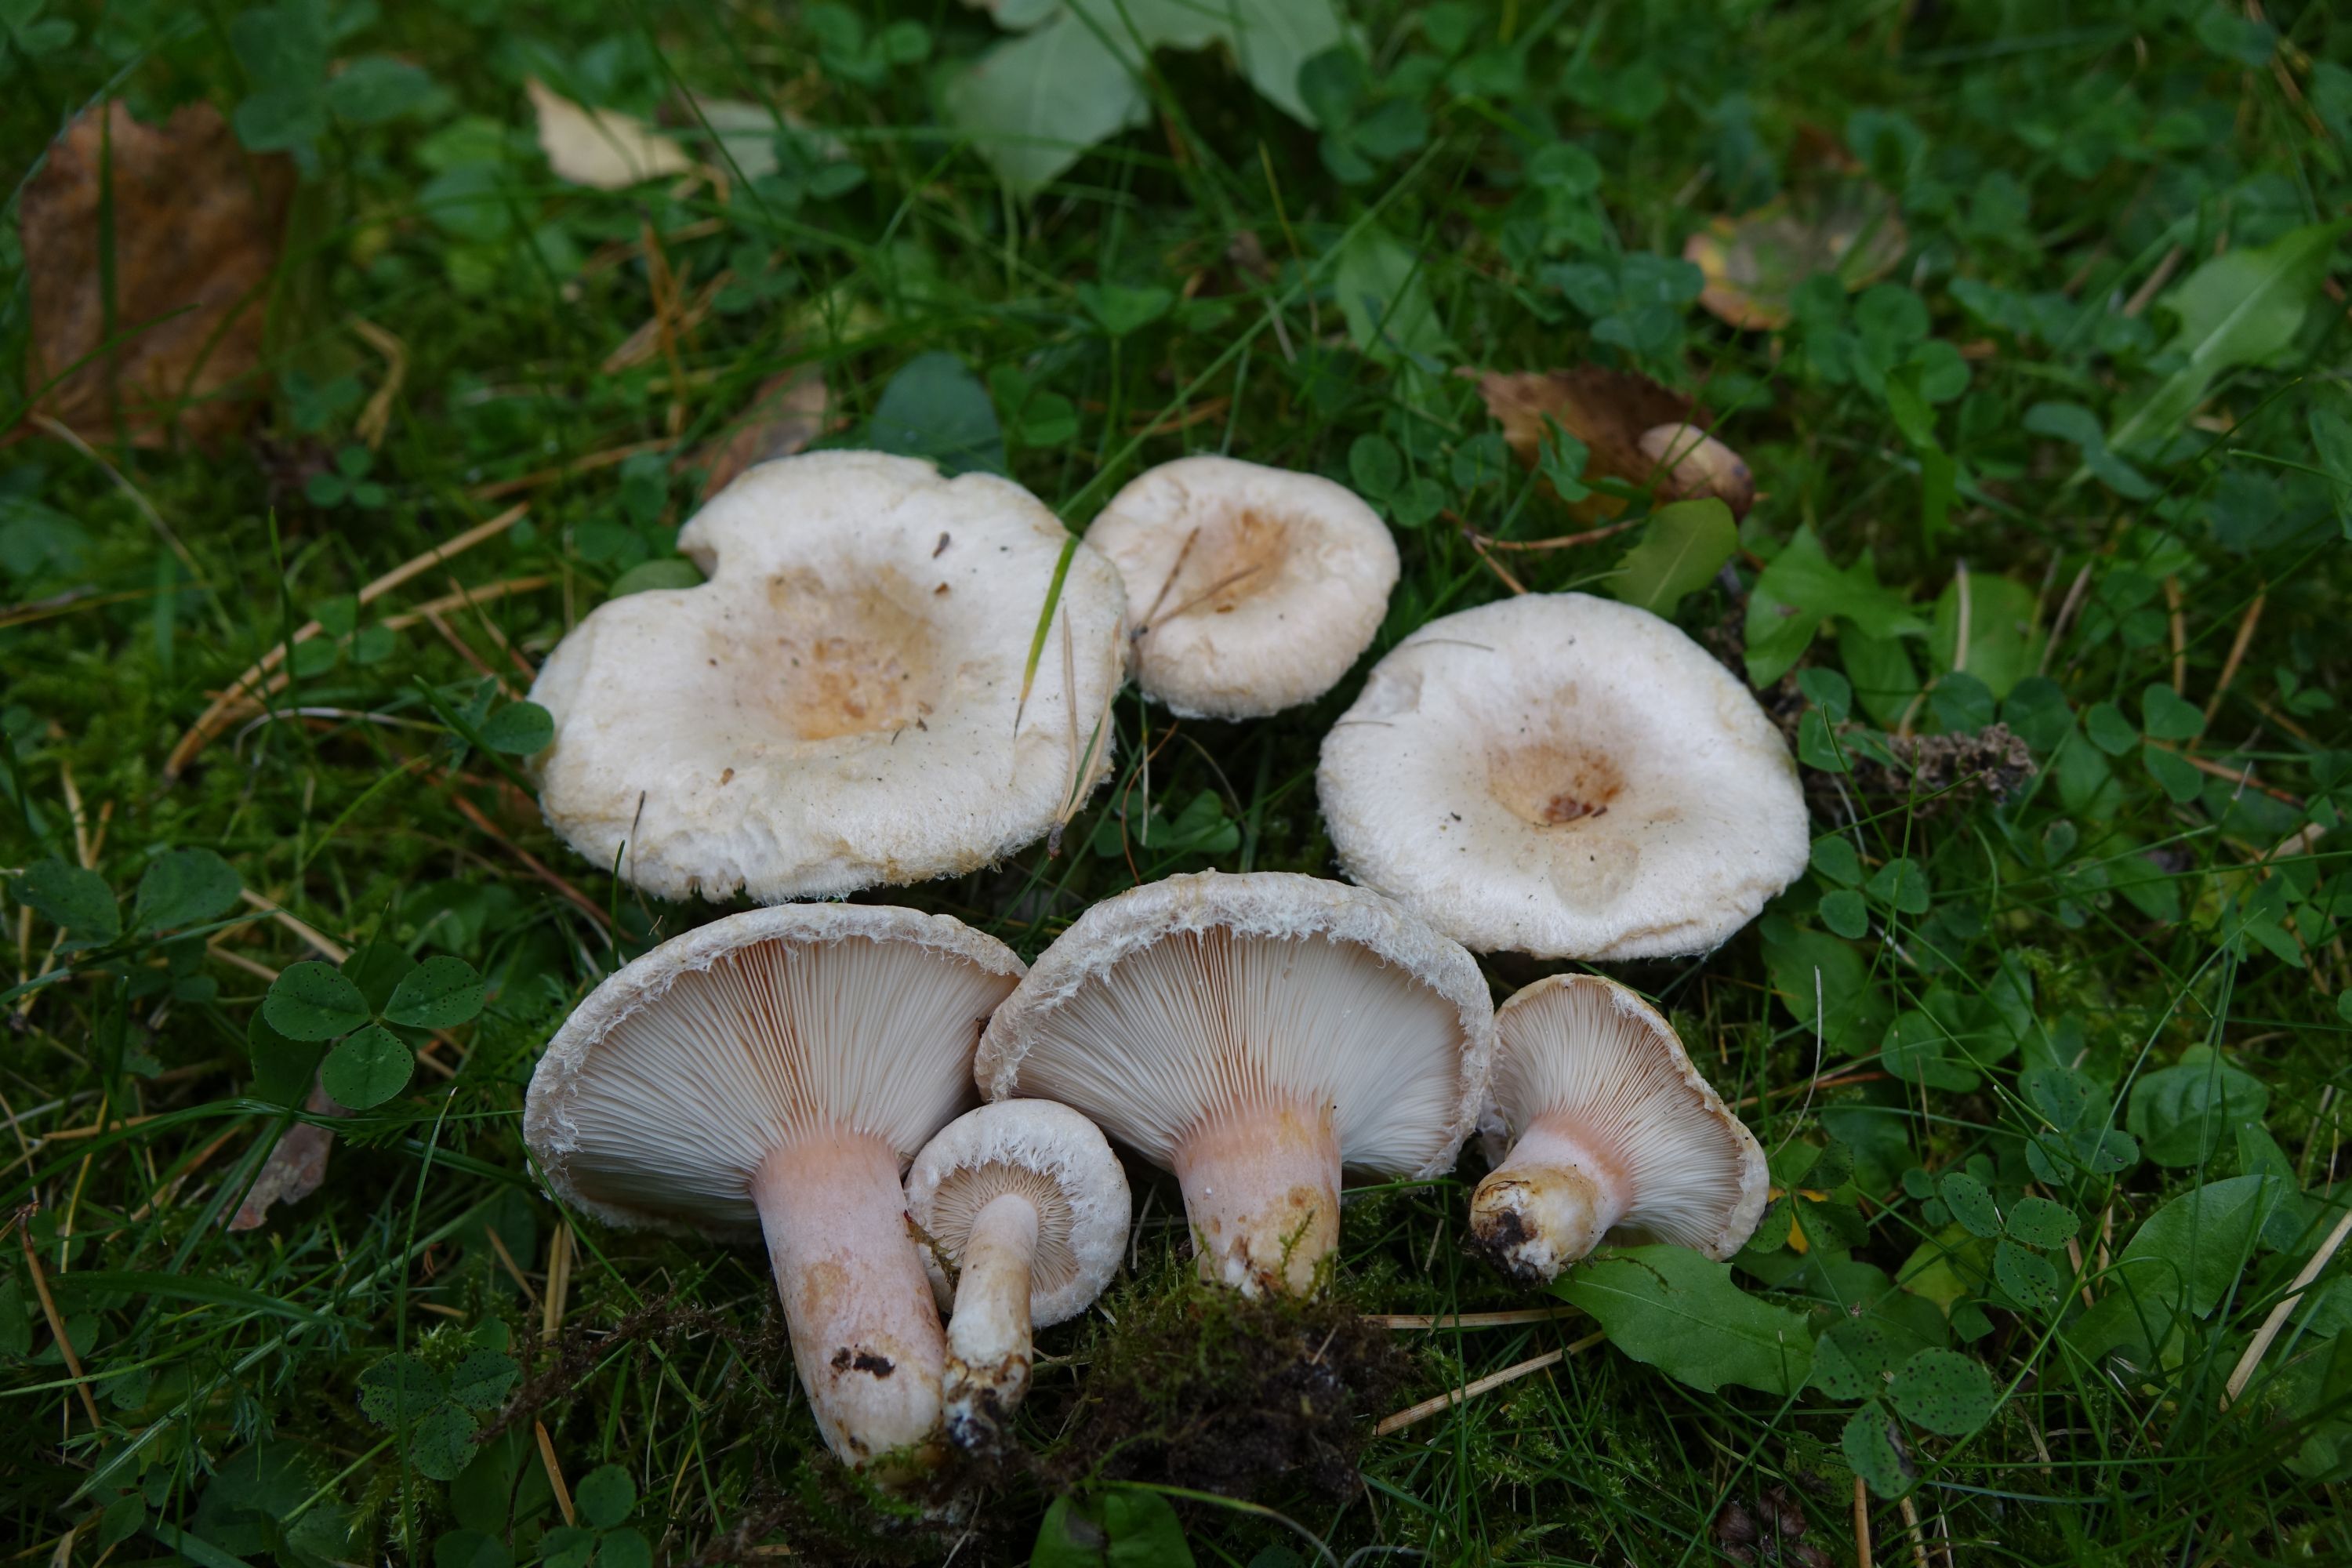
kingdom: Fungi
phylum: Basidiomycota
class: Agaricomycetes
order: Russulales
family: Russulaceae
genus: Lactarius
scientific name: Lactarius pubescens
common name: Bearded milkcap
